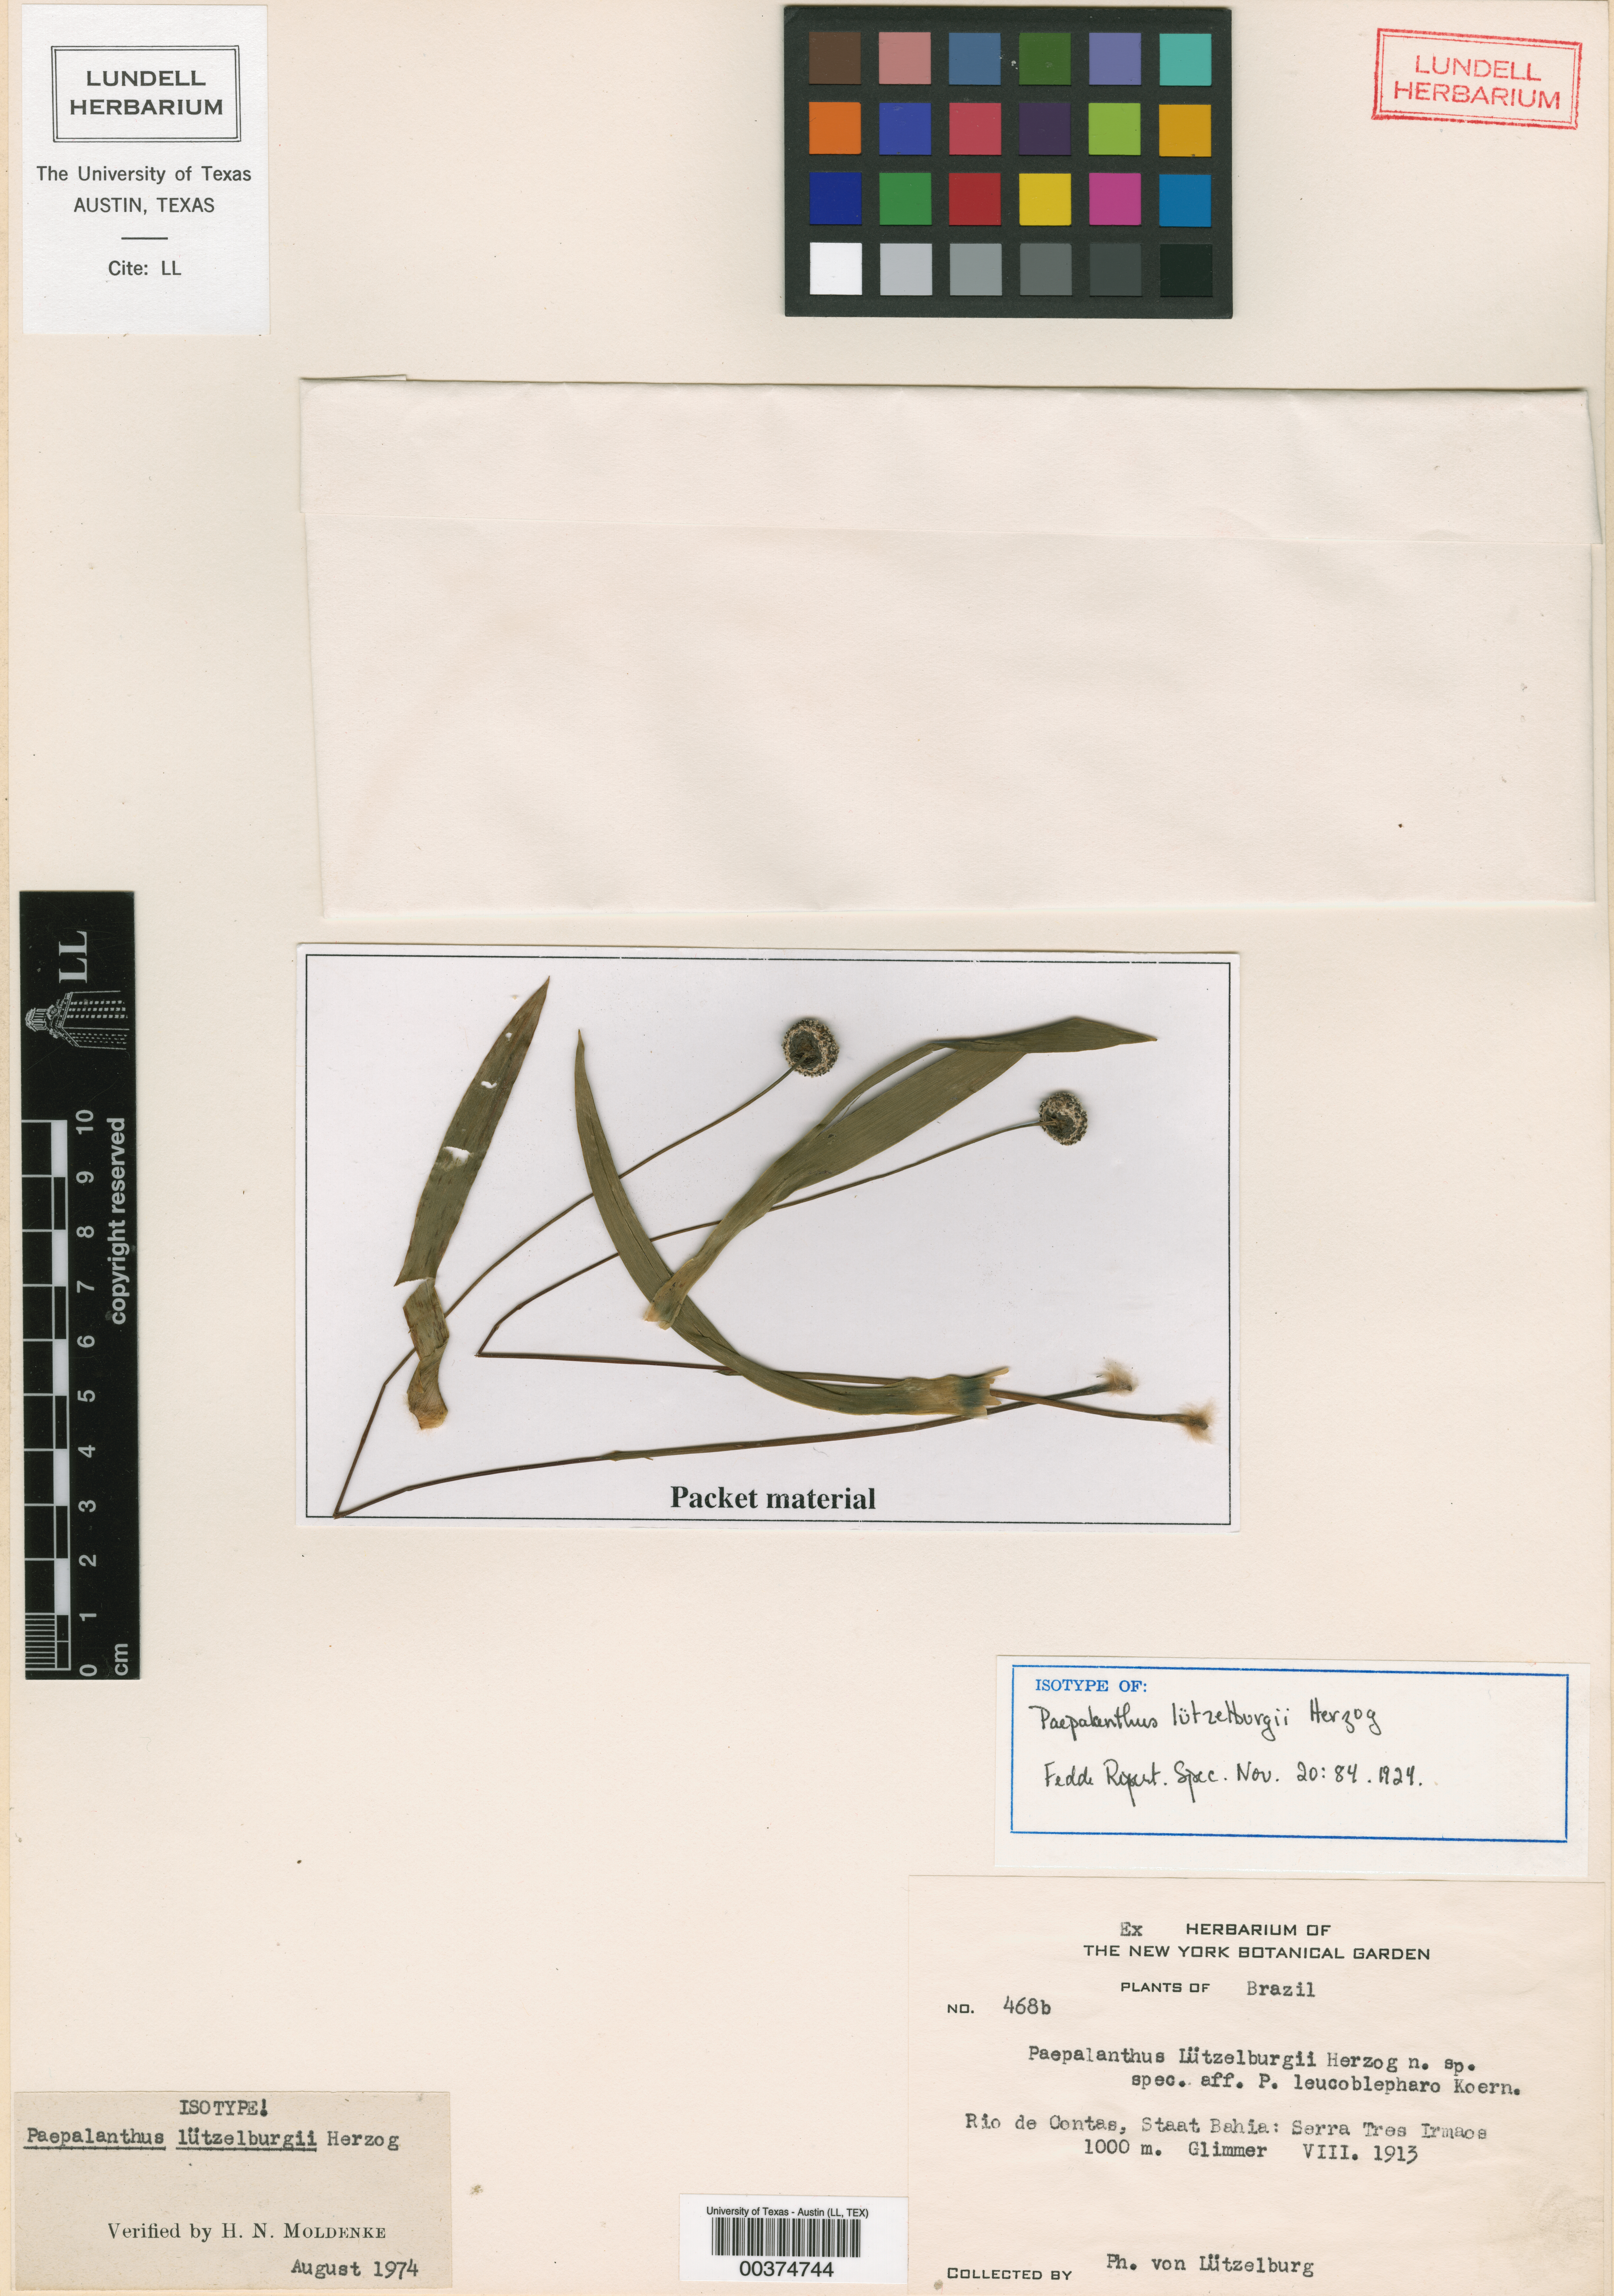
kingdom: Plantae
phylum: Tracheophyta
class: Liliopsida
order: Poales
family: Eriocaulaceae
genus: Paepalanthus
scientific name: Paepalanthus luetzelburgii
